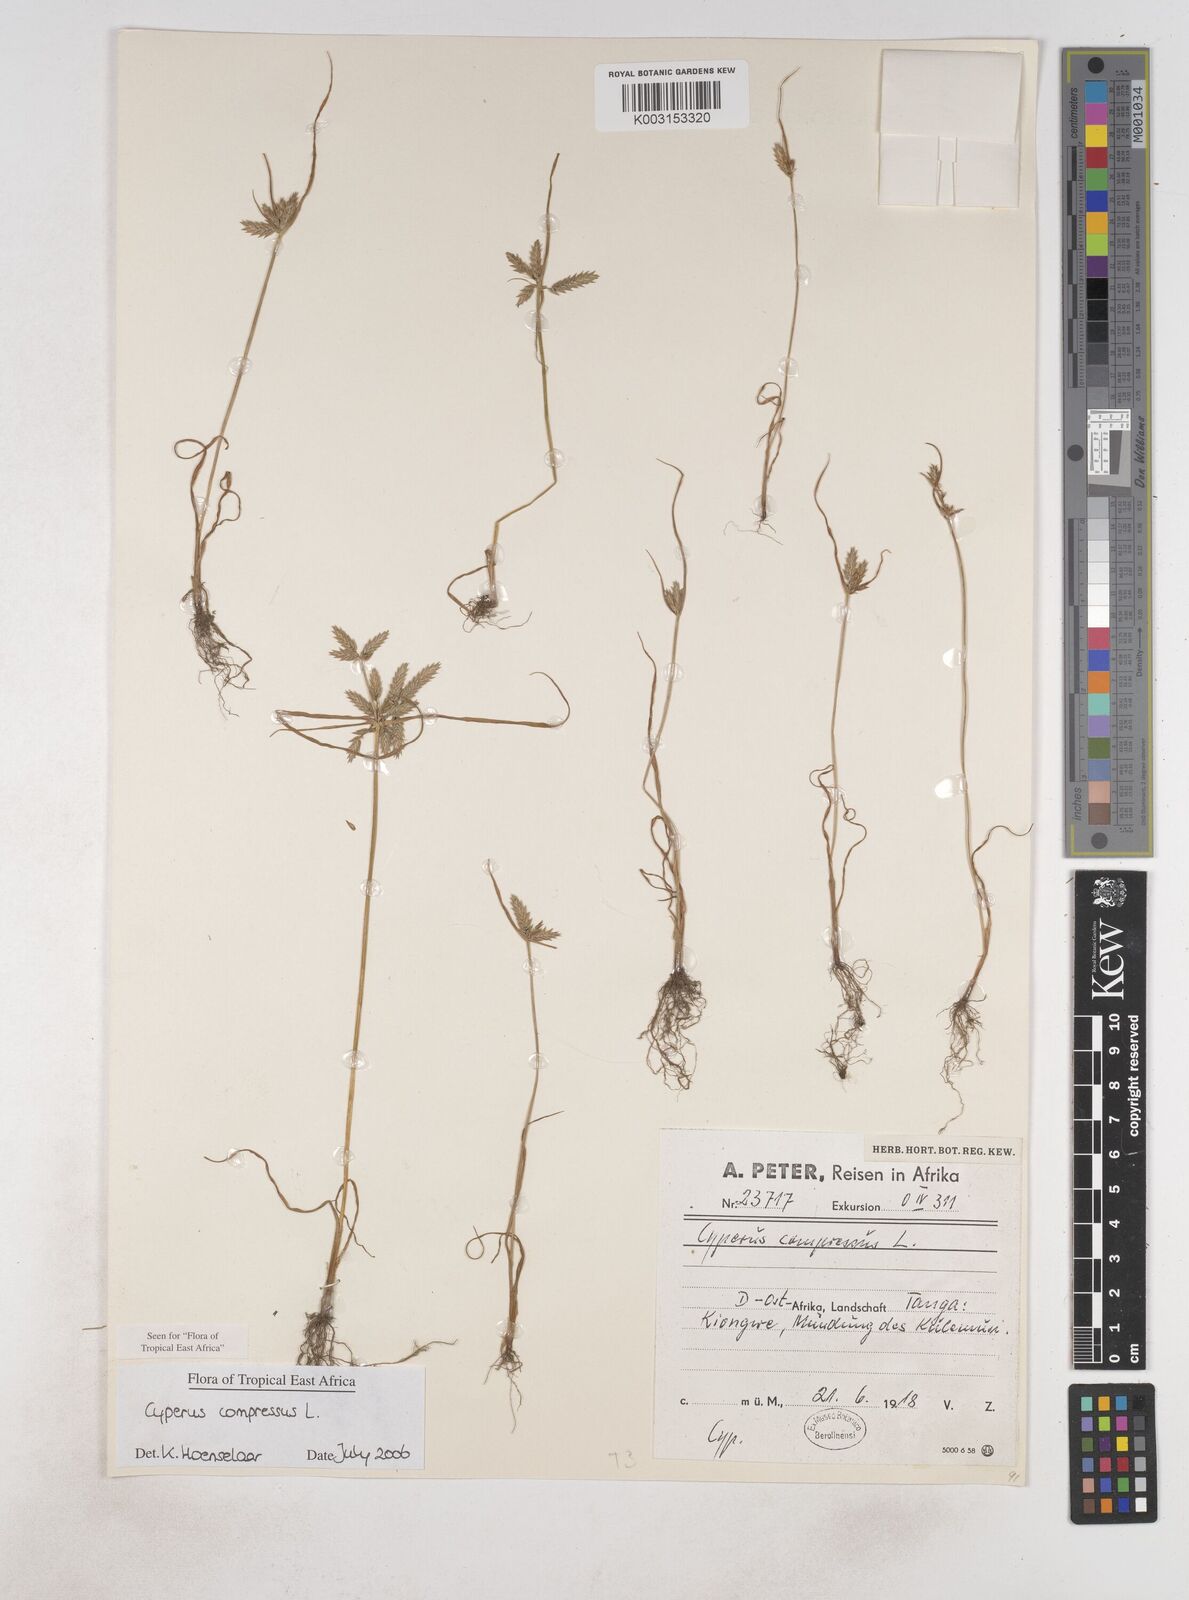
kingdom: Plantae
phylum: Tracheophyta
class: Liliopsida
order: Poales
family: Cyperaceae
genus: Cyperus
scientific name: Cyperus compressus
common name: Poorland flatsedge
